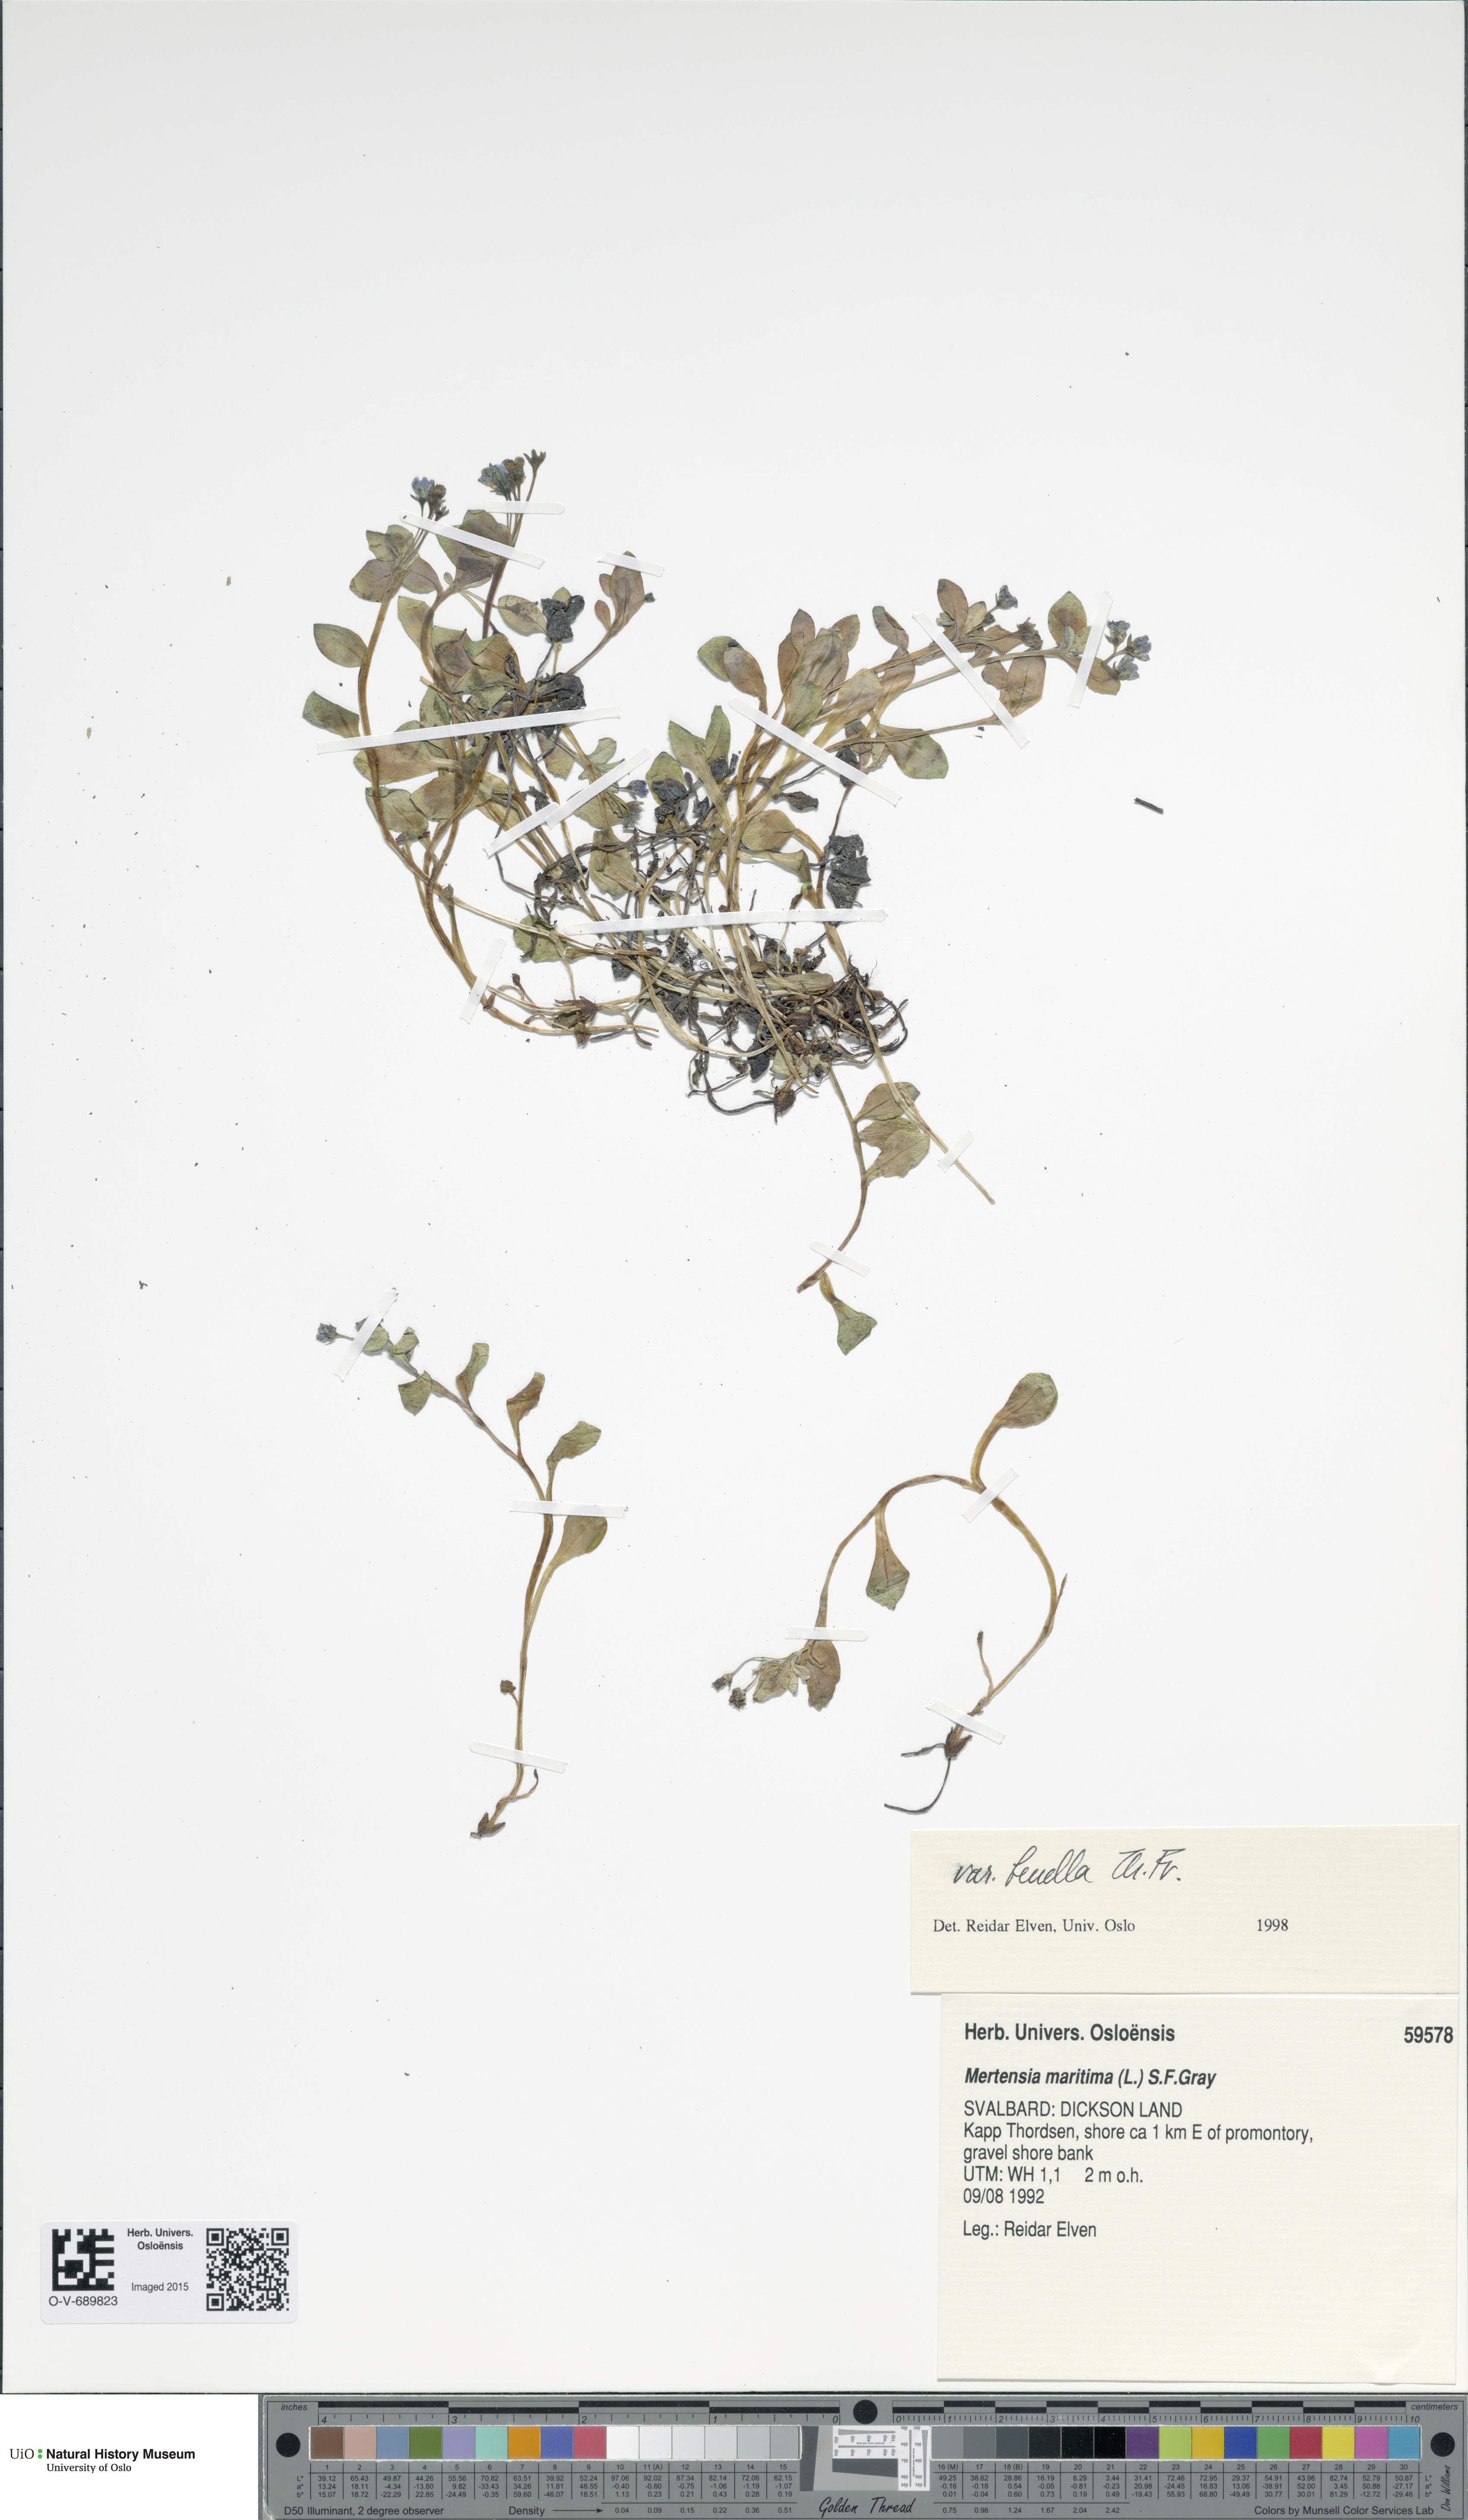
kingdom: Plantae
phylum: Tracheophyta
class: Magnoliopsida
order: Boraginales
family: Boraginaceae
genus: Mertensia
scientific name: Mertensia maritima
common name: Oysterplant
